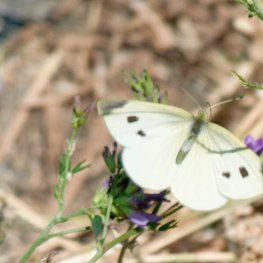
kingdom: Animalia
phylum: Arthropoda
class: Insecta
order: Lepidoptera
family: Pieridae
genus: Pieris
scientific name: Pieris rapae
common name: Cabbage White
